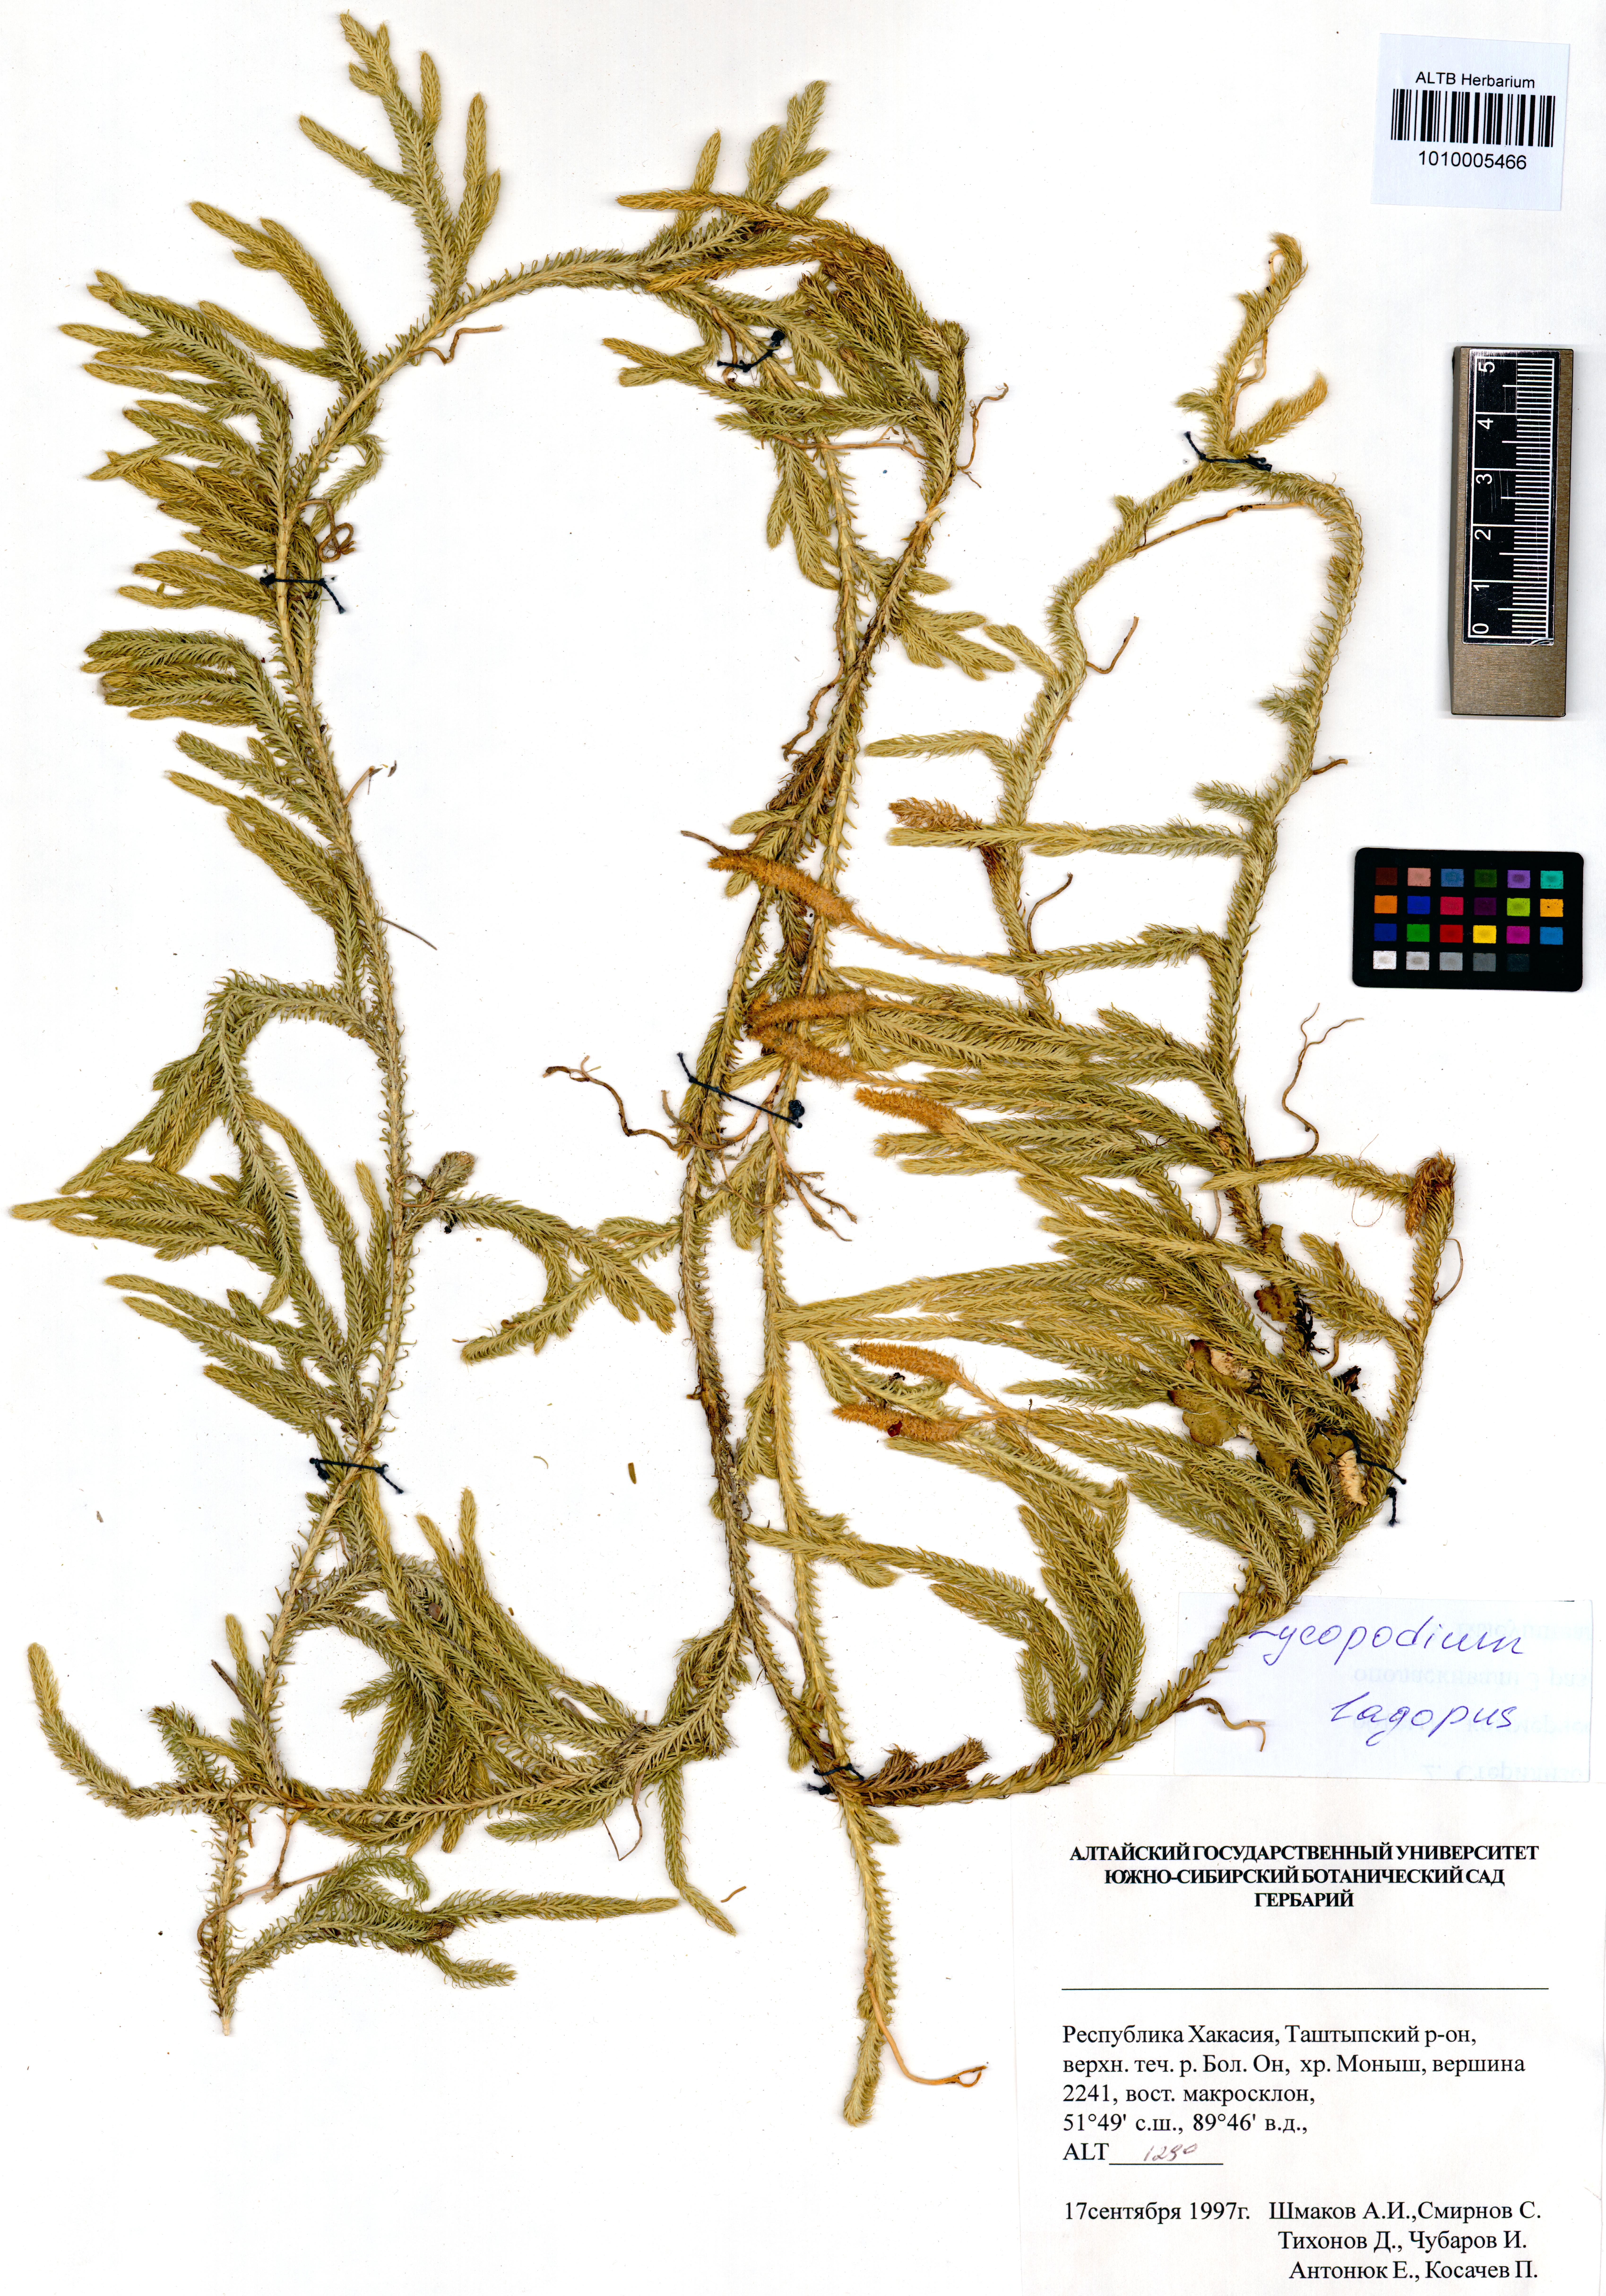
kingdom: Plantae
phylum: Tracheophyta
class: Lycopodiopsida
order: Lycopodiales
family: Lycopodiaceae
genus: Lycopodium
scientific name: Lycopodium lagopus
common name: One-cone clubmoss
